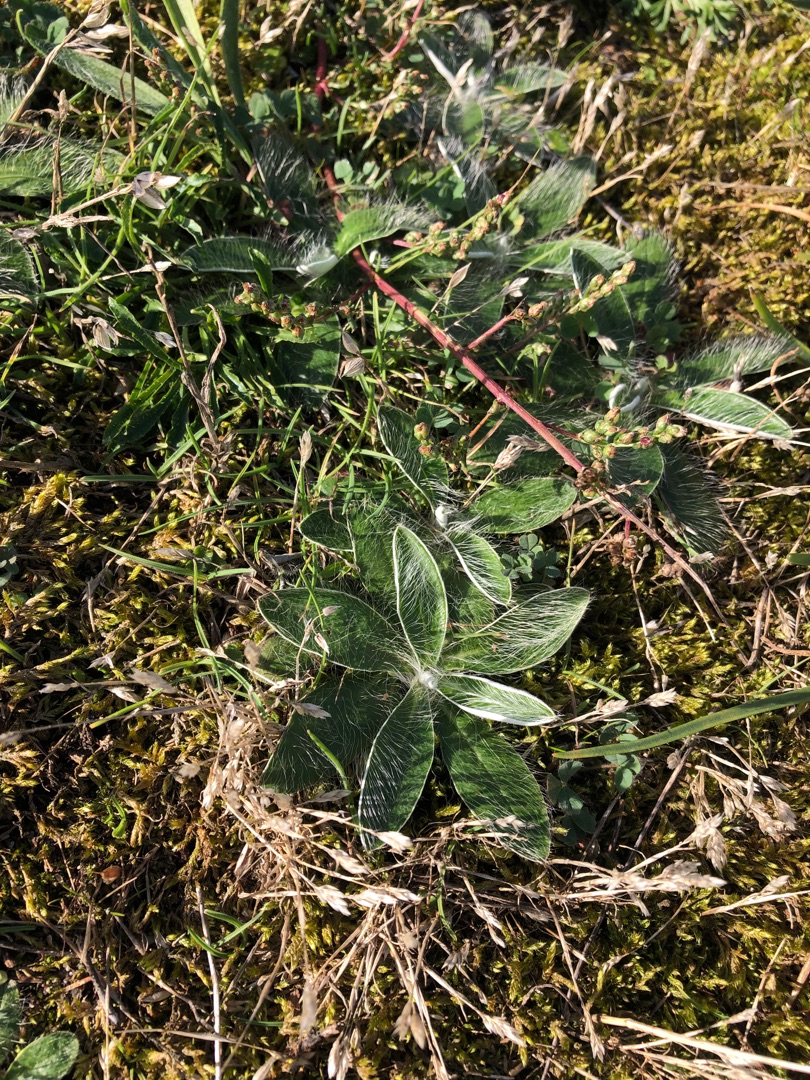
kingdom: Plantae
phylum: Tracheophyta
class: Magnoliopsida
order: Asterales
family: Asteraceae
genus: Pilosella
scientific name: Pilosella officinarum
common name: Håret høgeurt
